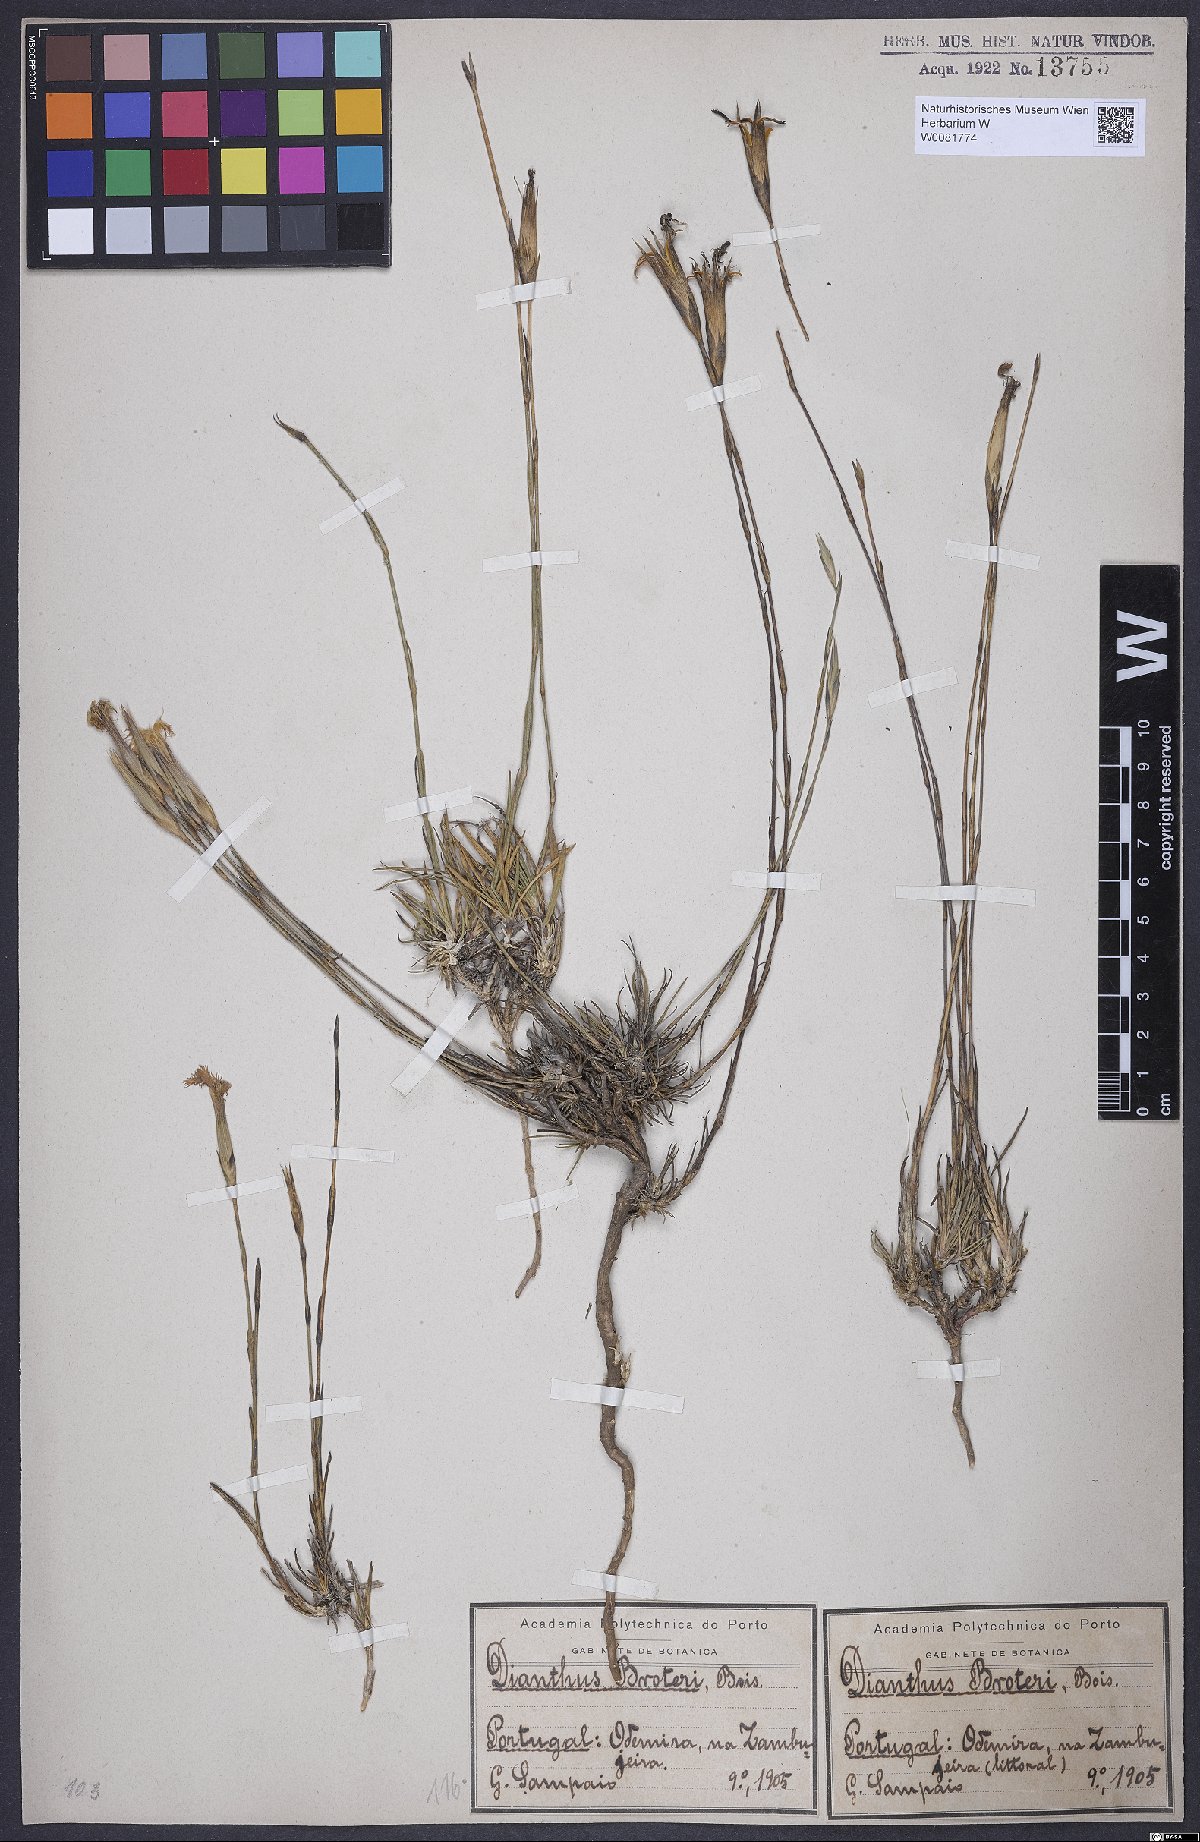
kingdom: Plantae
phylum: Tracheophyta
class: Magnoliopsida
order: Caryophyllales
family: Caryophyllaceae
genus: Dianthus
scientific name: Dianthus broteri
